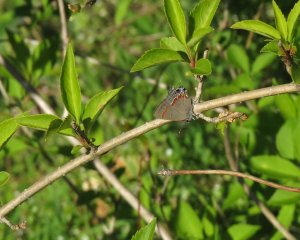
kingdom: Animalia
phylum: Arthropoda
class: Insecta
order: Lepidoptera
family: Lycaenidae
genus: Calycopis
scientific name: Calycopis cecrops
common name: Red-banded Hairstreak
